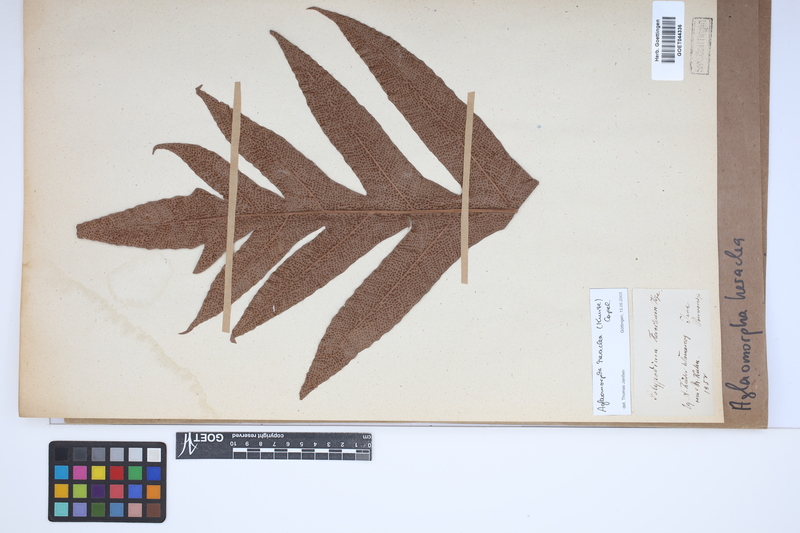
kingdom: Plantae
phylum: Tracheophyta
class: Polypodiopsida
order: Polypodiales
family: Polypodiaceae
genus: Drynaria
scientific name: Drynaria heraclea
